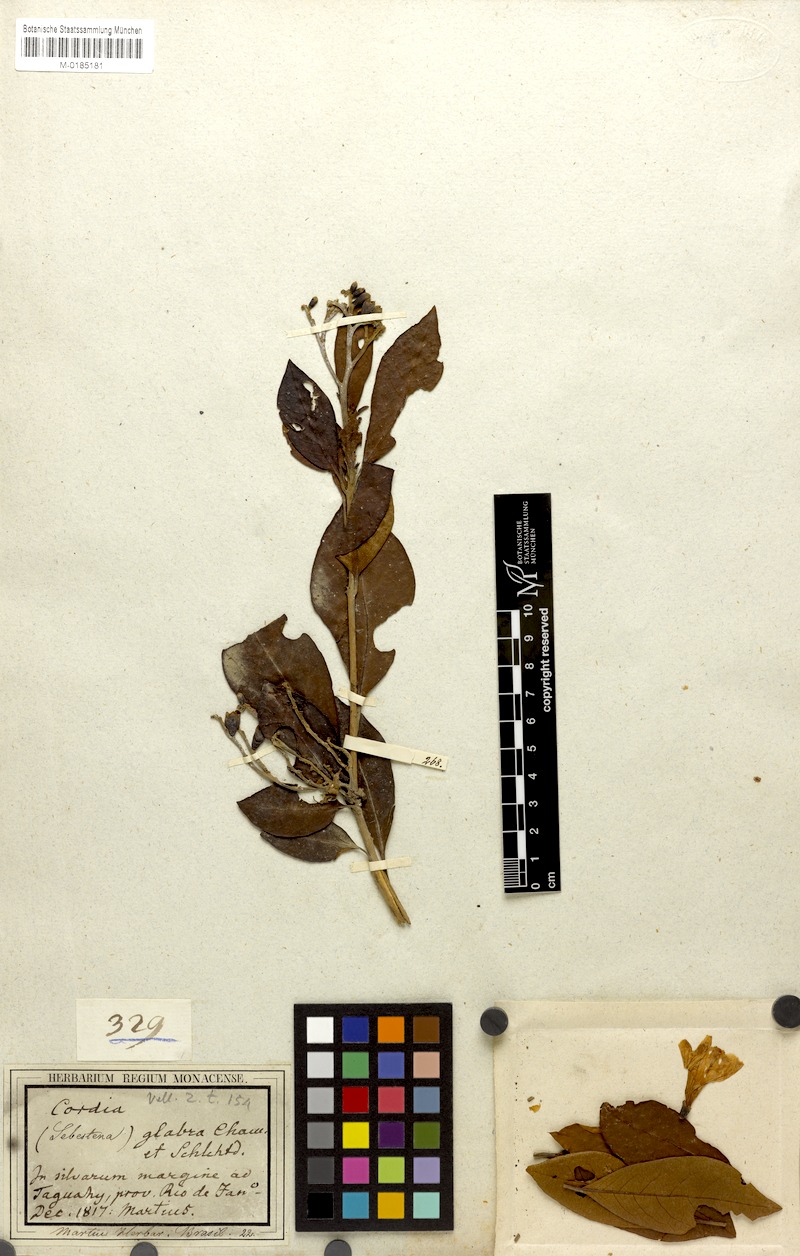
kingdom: Plantae
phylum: Tracheophyta
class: Magnoliopsida
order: Boraginales
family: Cordiaceae
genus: Cordia
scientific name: Cordia taguahuyensis
